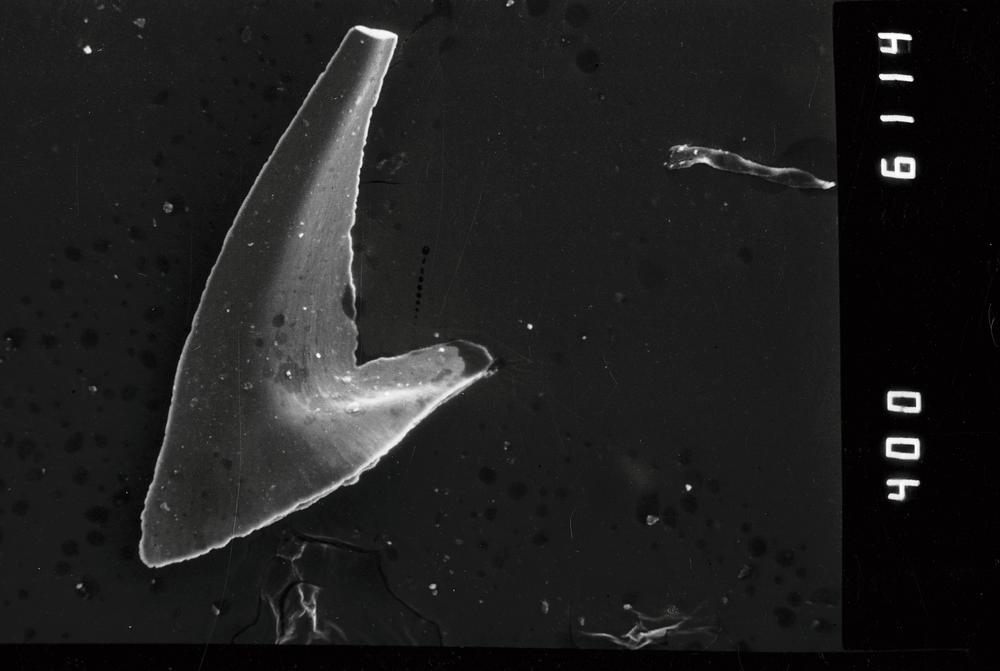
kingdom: Animalia
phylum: Annelida
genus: Paltodus
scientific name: Paltodus subaequalis
